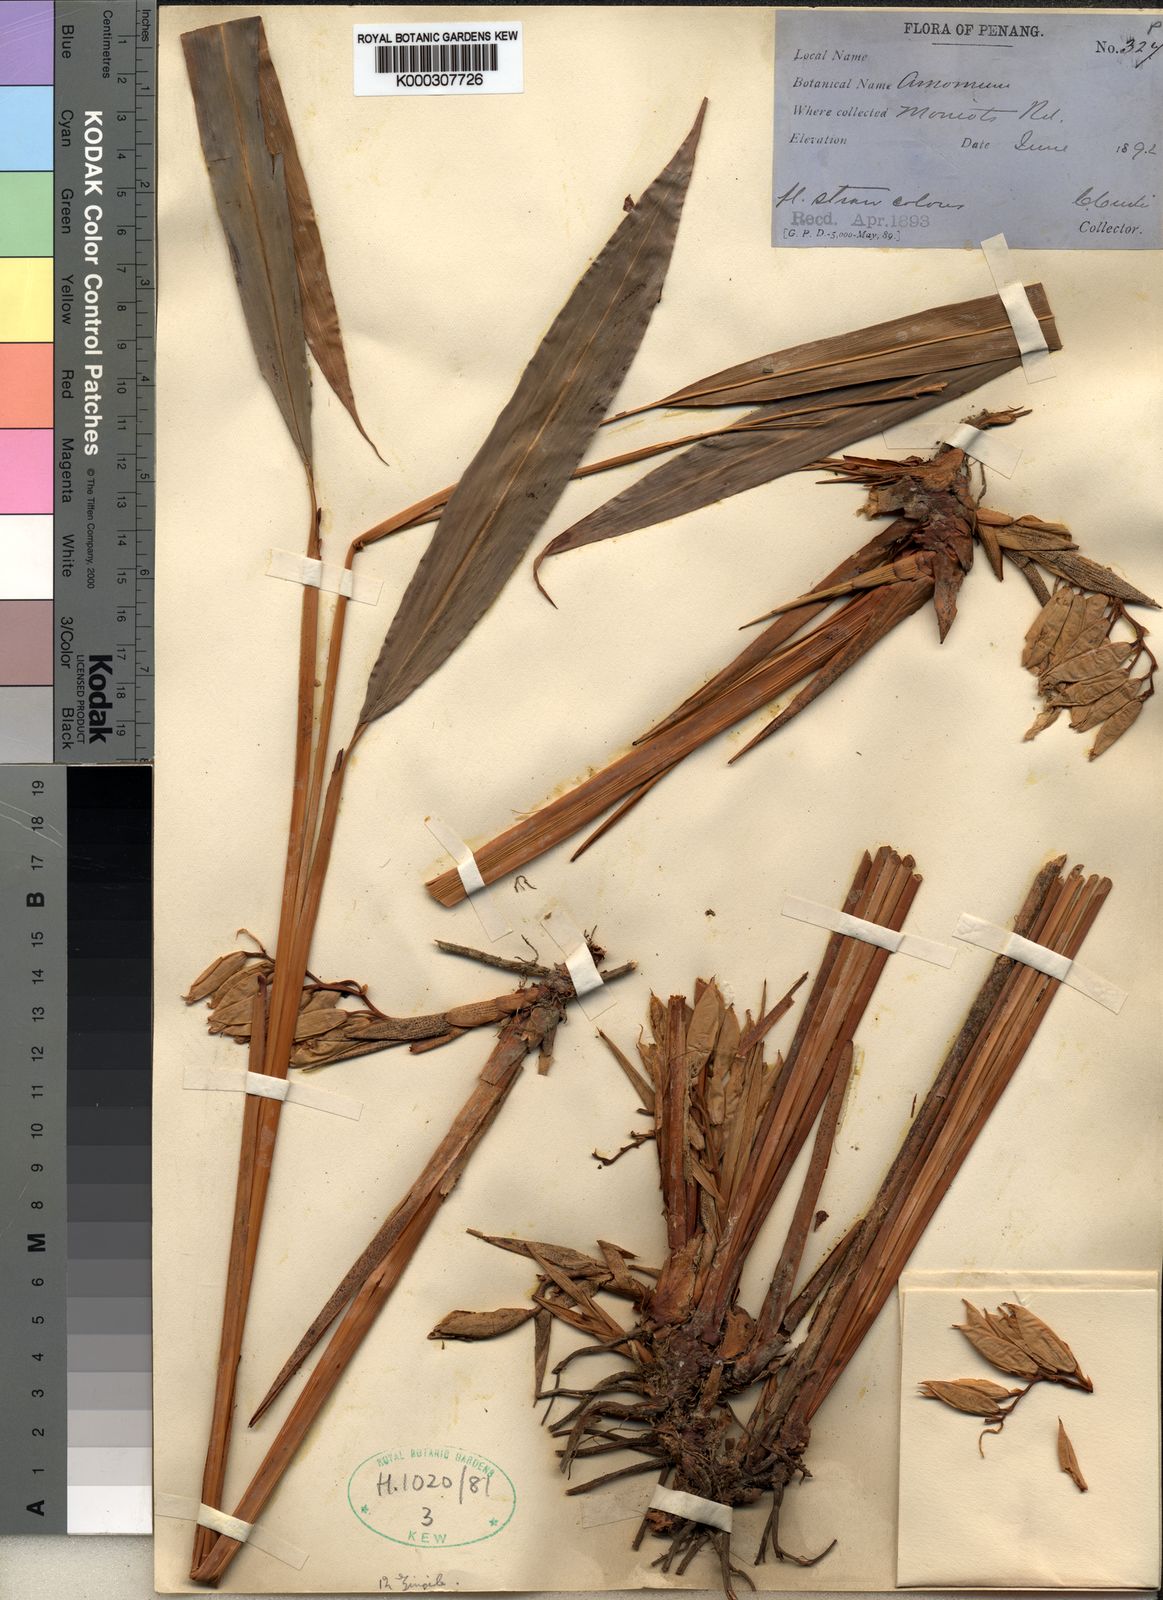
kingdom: Plantae
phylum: Tracheophyta
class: Liliopsida
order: Zingiberales
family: Zingiberaceae
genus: Geostachys
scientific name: Geostachys penangensis
